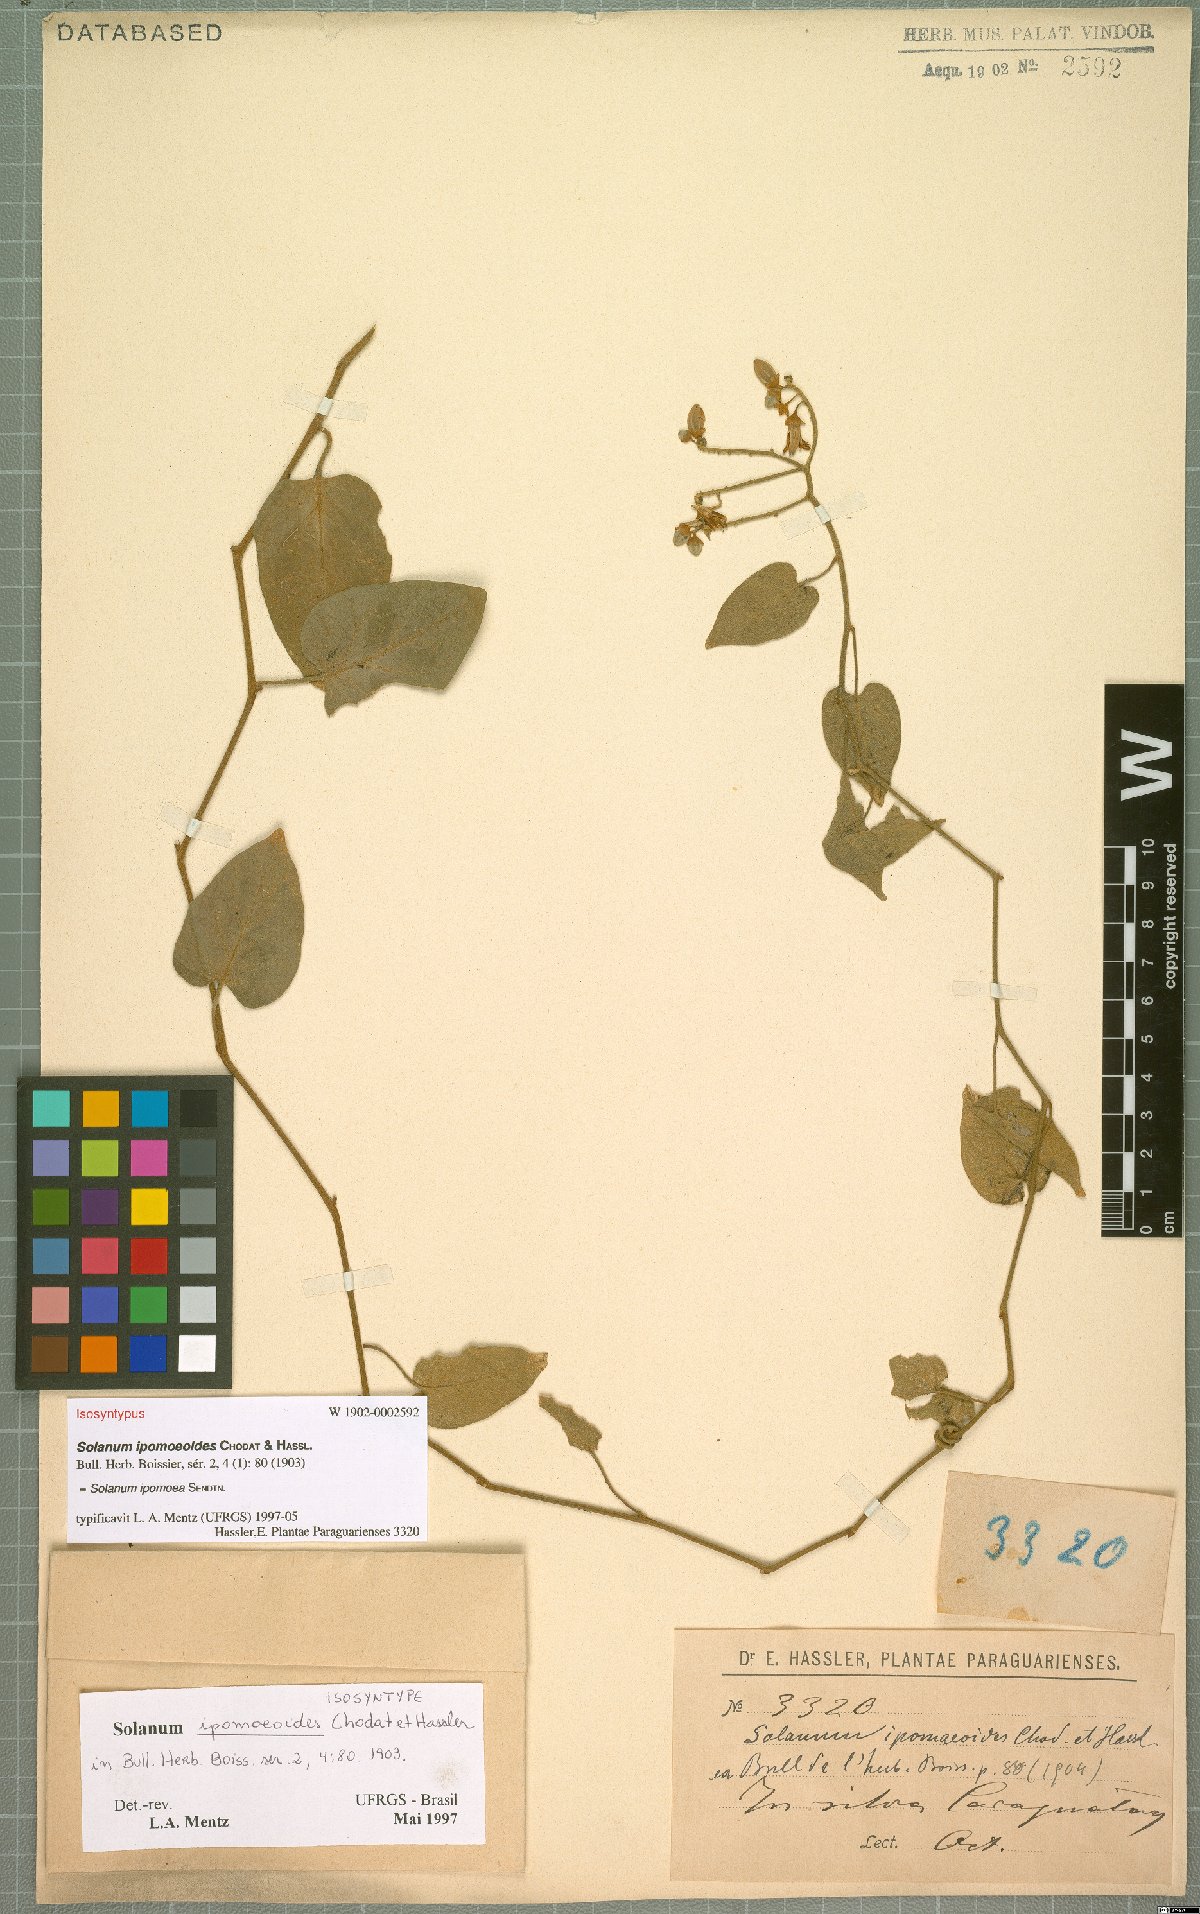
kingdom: Plantae
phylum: Tracheophyta
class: Magnoliopsida
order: Solanales
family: Solanaceae
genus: Solanum
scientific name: Solanum uncinellum
